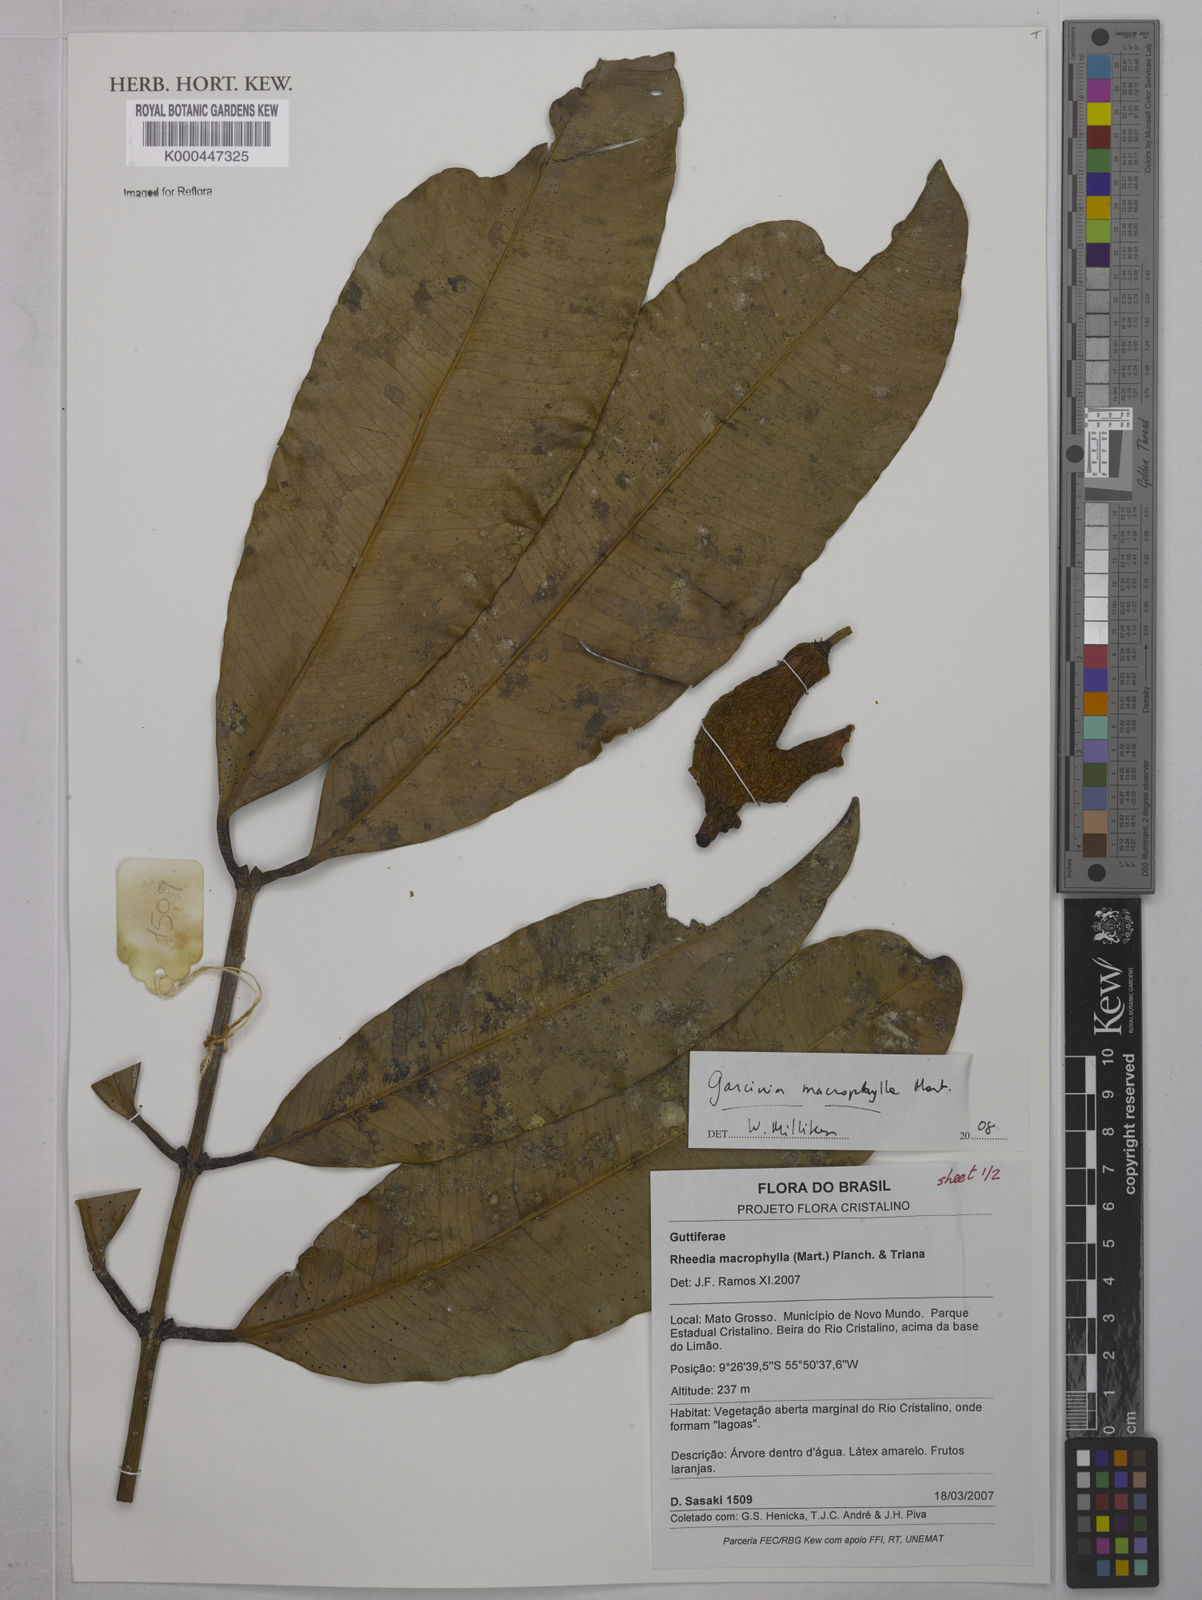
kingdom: Plantae
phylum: Tracheophyta
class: Magnoliopsida
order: Malpighiales
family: Clusiaceae
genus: Garcinia
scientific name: Garcinia macrophylla
